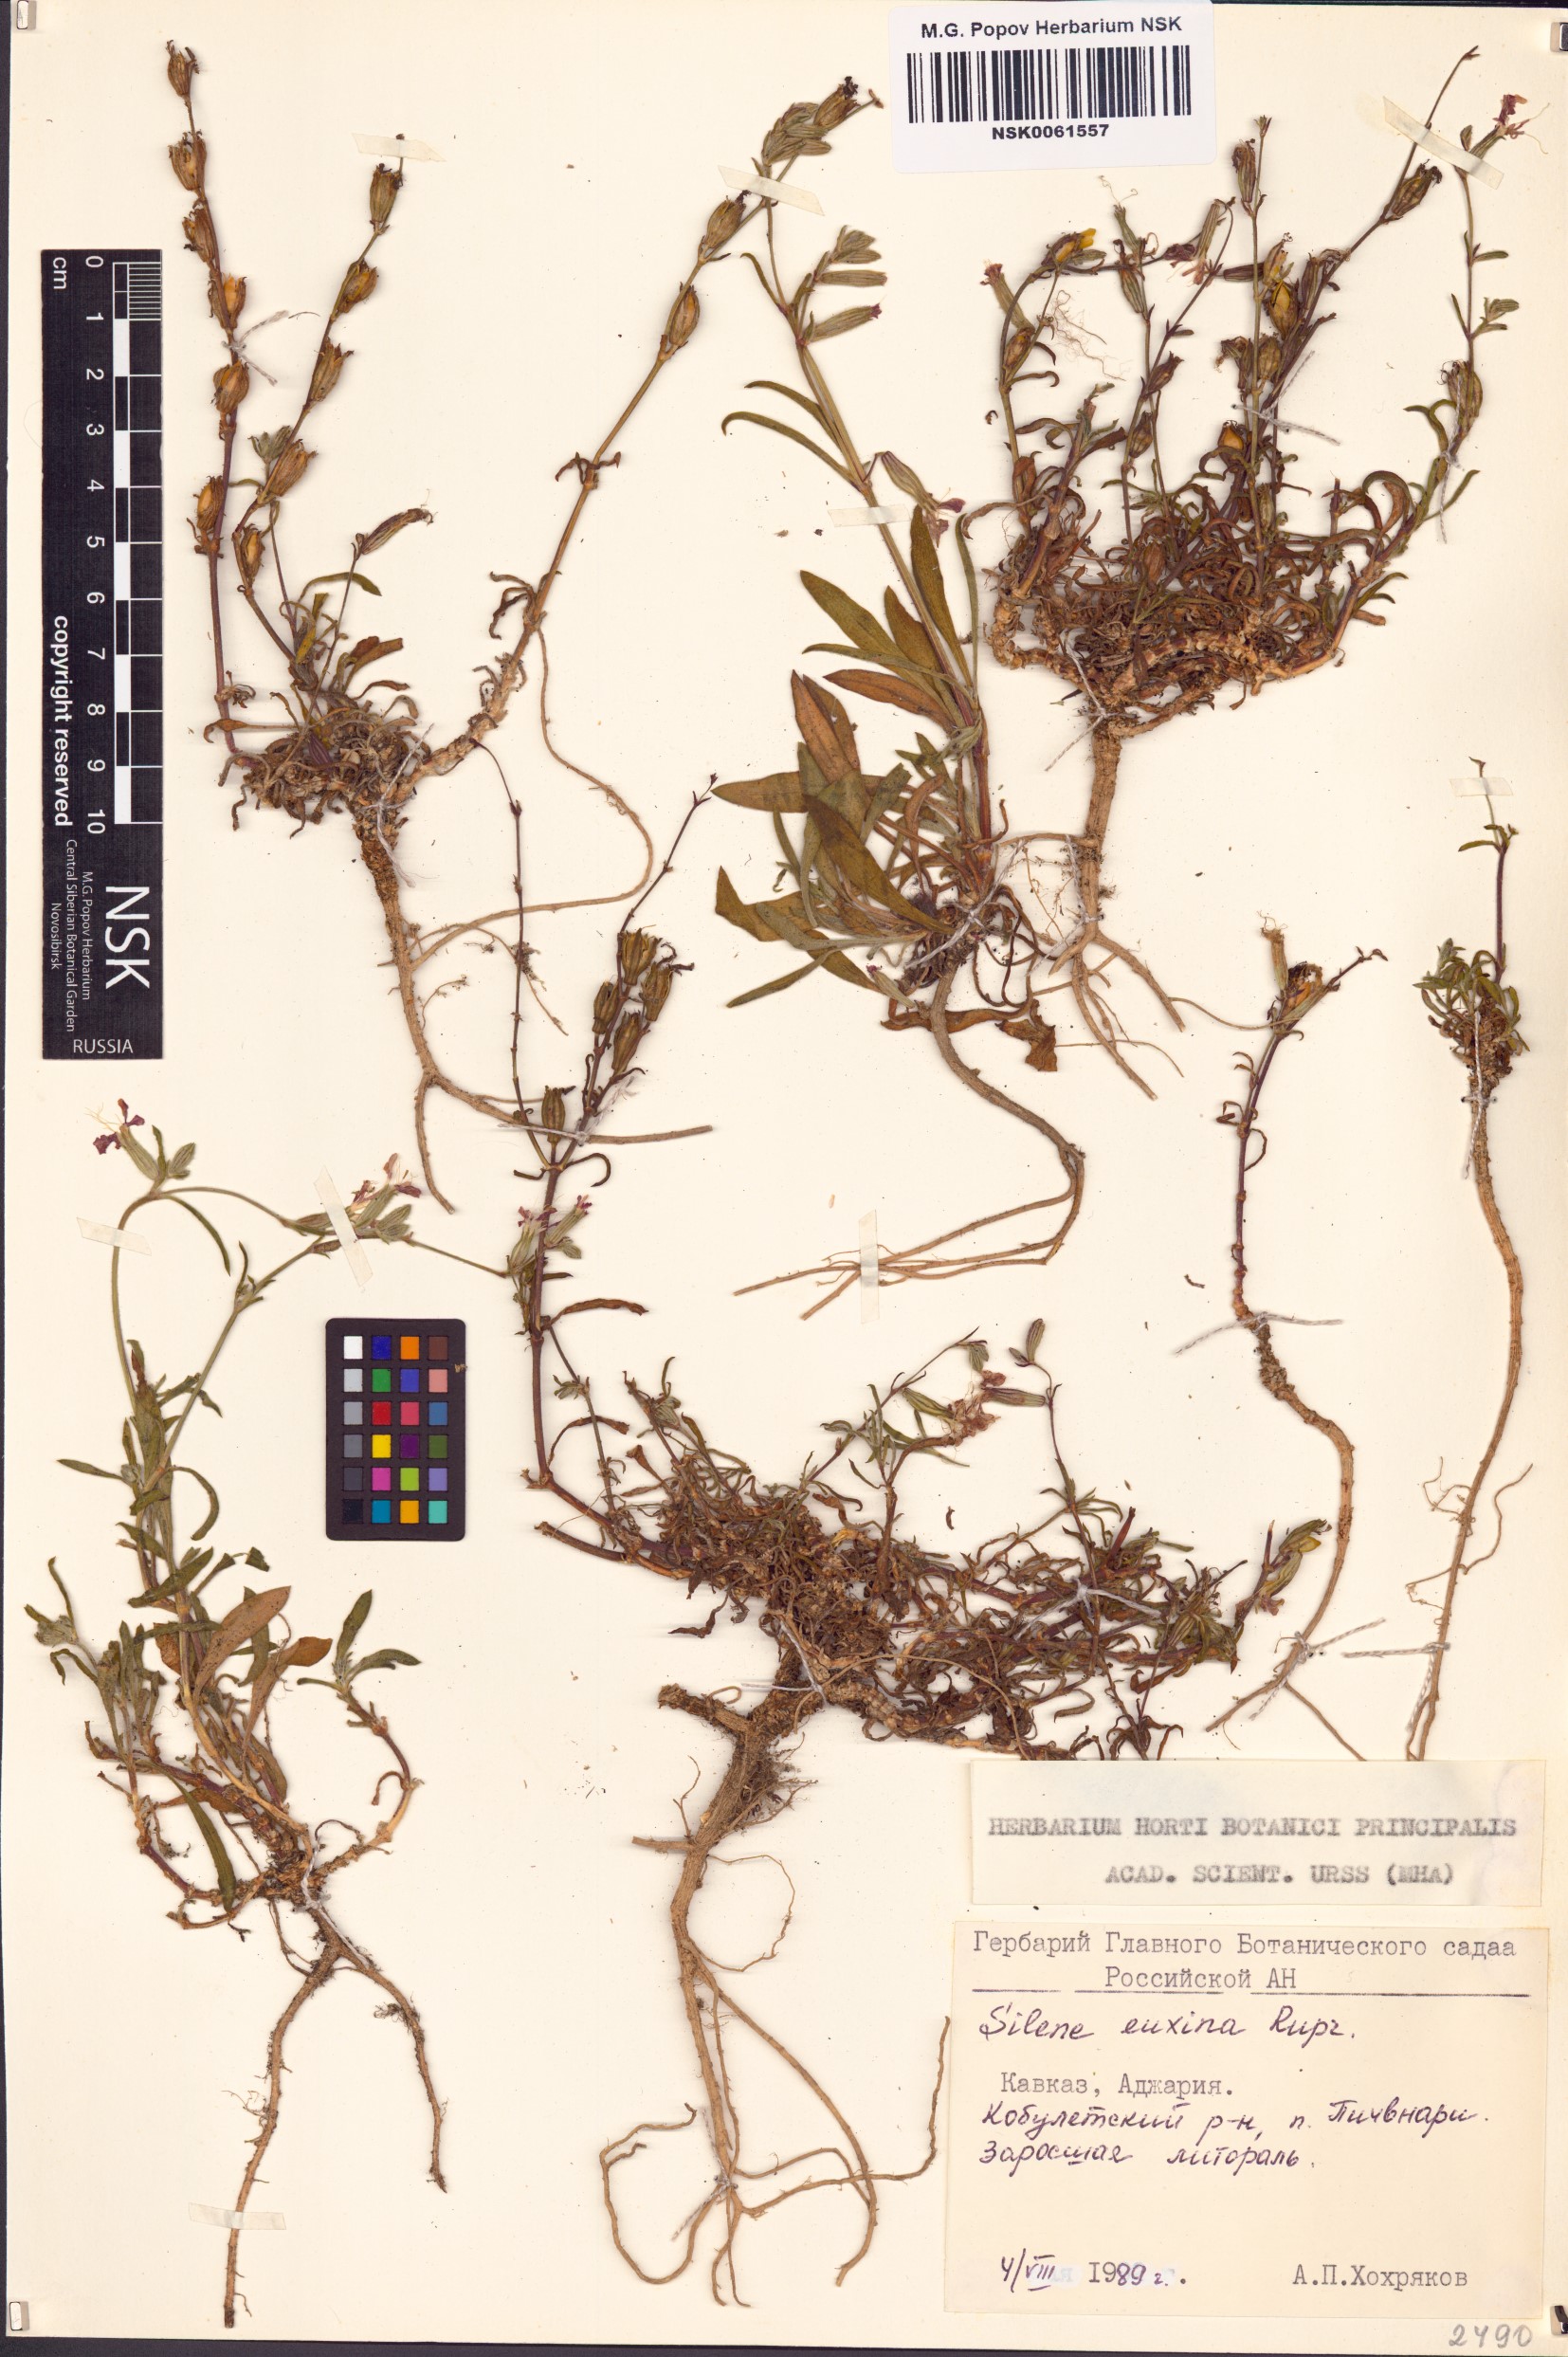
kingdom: Plantae
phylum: Tracheophyta
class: Magnoliopsida
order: Caryophyllales
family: Caryophyllaceae
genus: Silene
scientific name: Silene euxina
